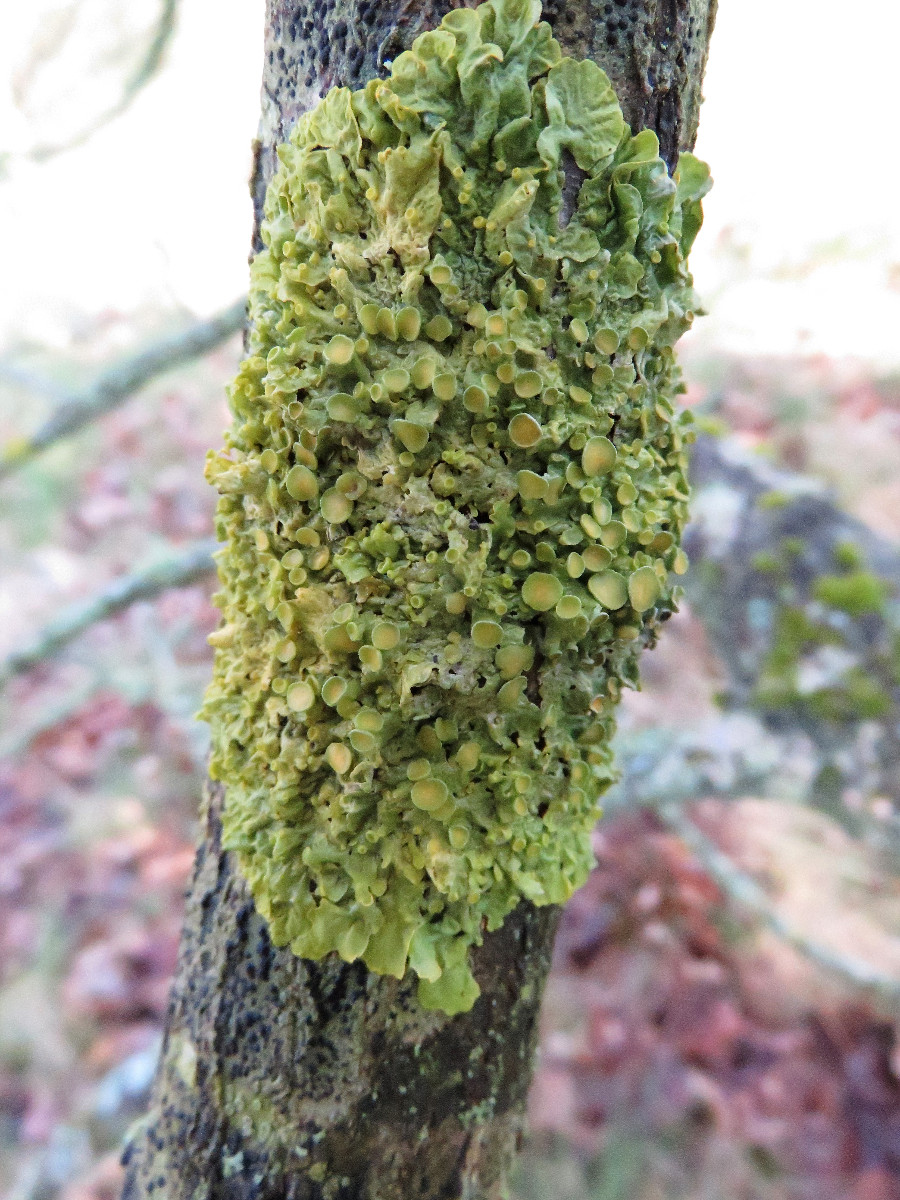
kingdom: Fungi
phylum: Ascomycota
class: Lecanoromycetes
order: Teloschistales
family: Teloschistaceae
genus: Xanthoria
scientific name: Xanthoria parietina
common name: almindelig væggelav
